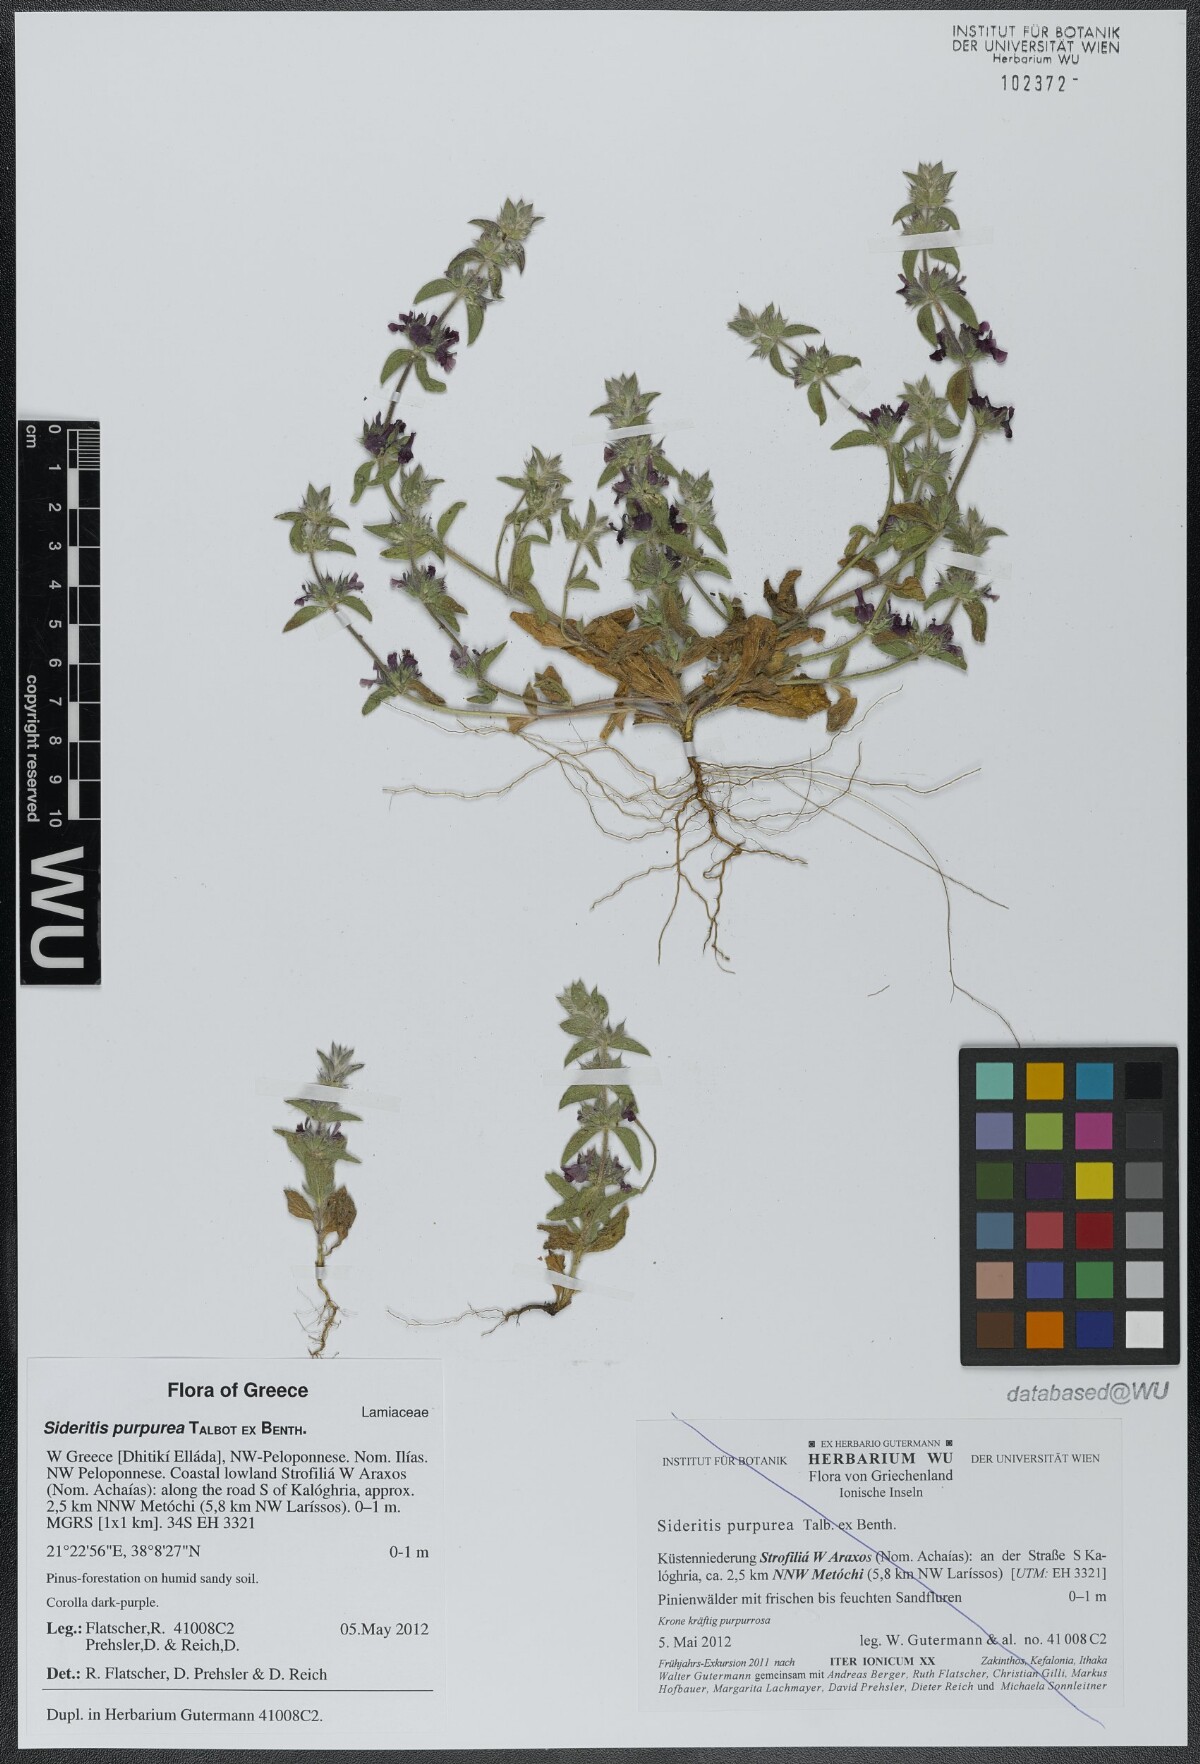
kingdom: Plantae
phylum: Tracheophyta
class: Magnoliopsida
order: Lamiales
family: Lamiaceae
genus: Sideritis
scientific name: Sideritis romana
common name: Simplebeak ironwort
